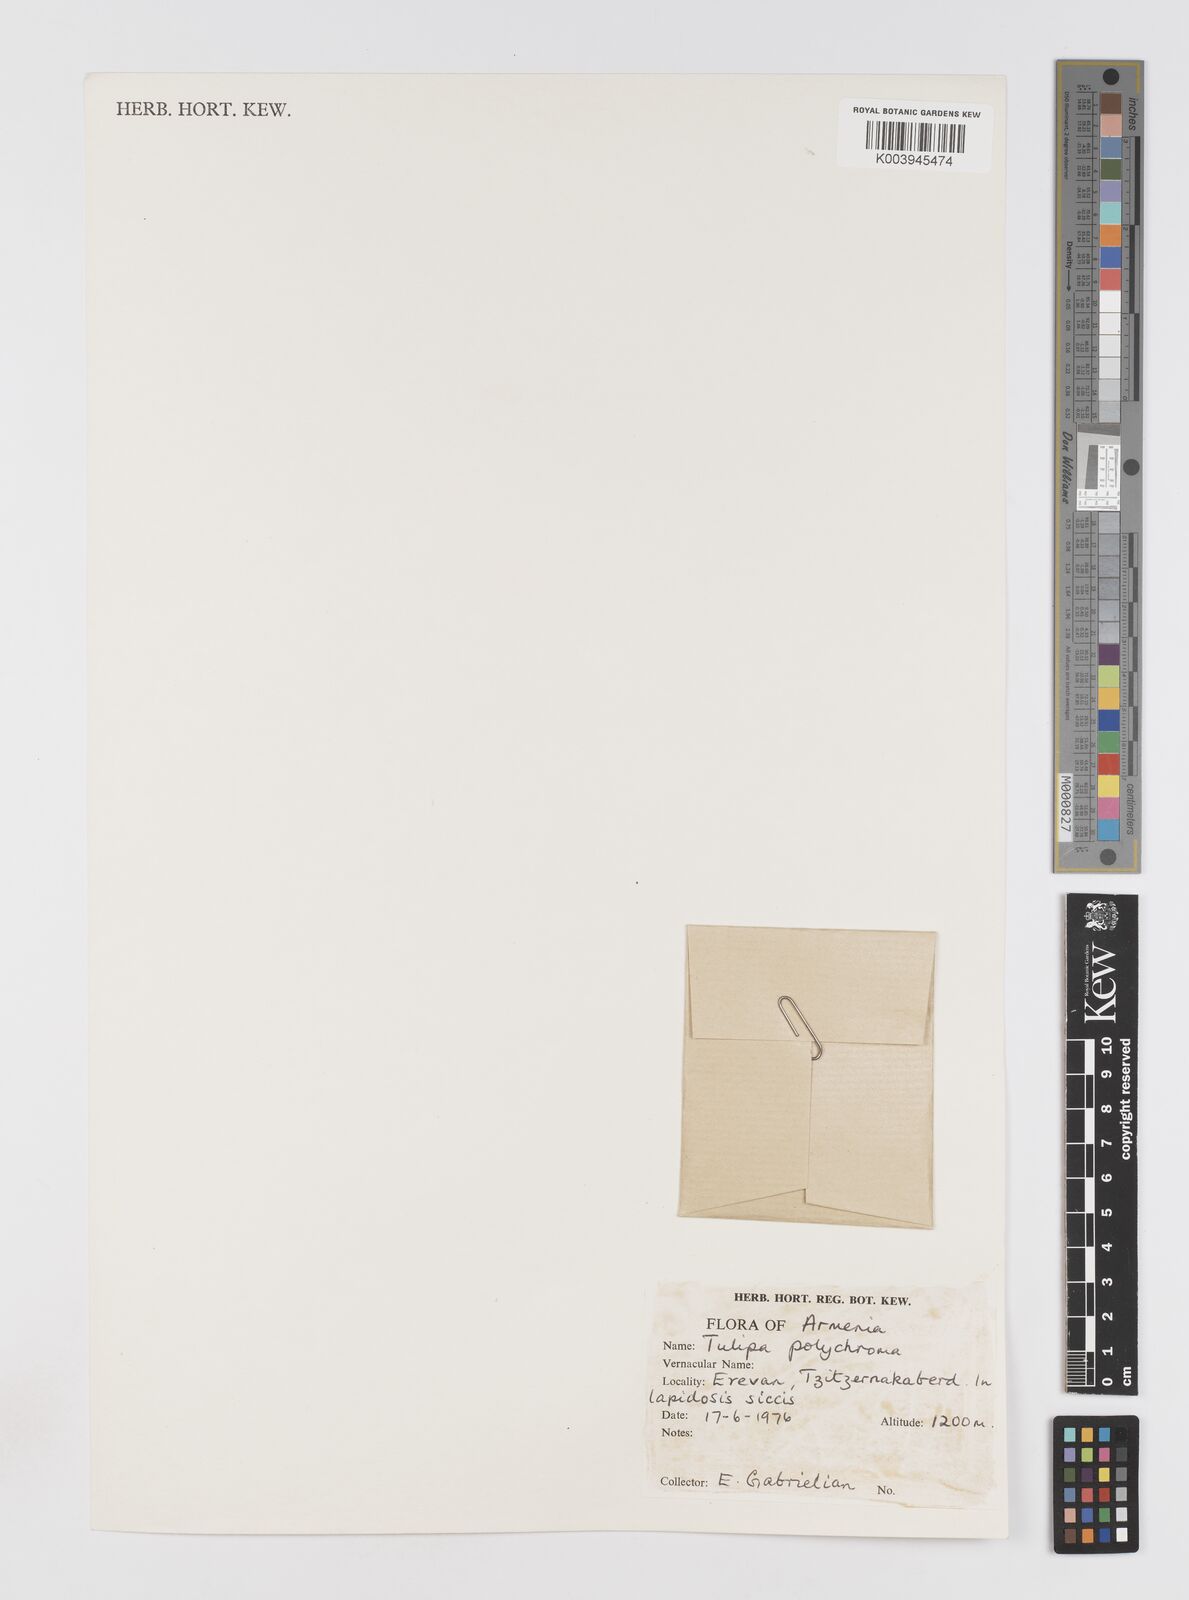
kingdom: Plantae
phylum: Tracheophyta
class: Liliopsida
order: Liliales
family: Liliaceae
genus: Tulipa
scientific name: Tulipa biflora
